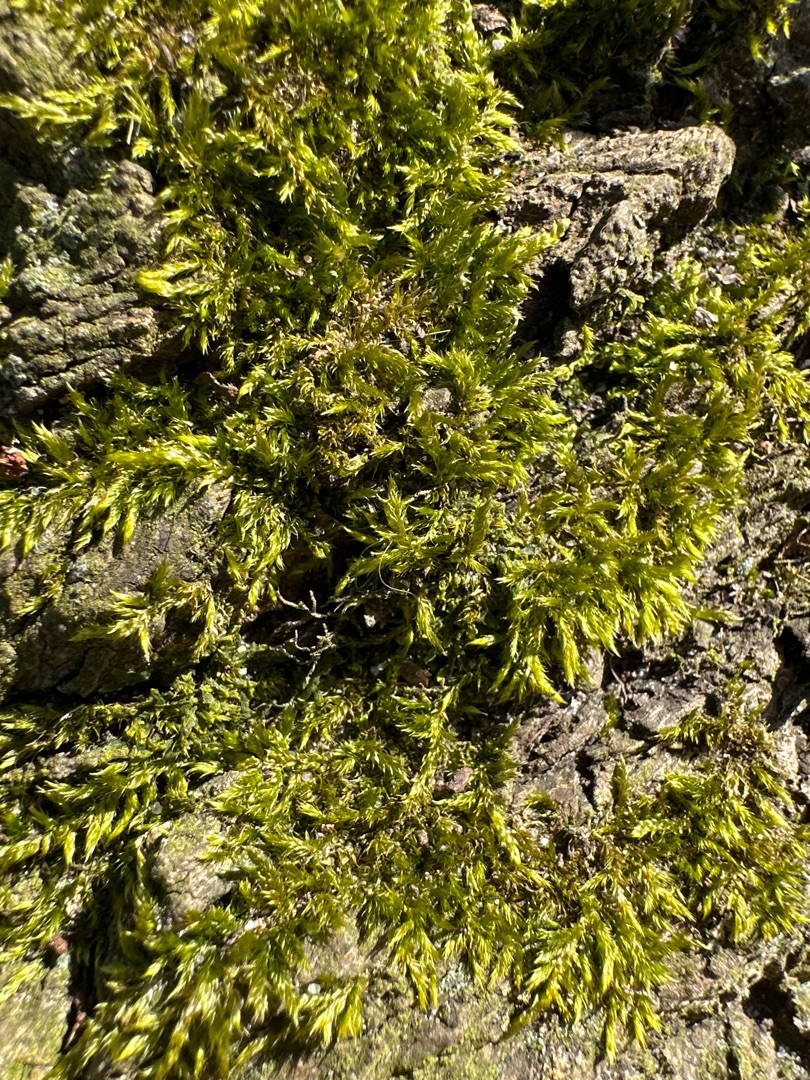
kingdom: Plantae
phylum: Bryophyta
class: Bryopsida
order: Hypnales
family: Hypnaceae
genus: Hypnum
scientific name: Hypnum cupressiforme
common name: Almindelig cypresmos
